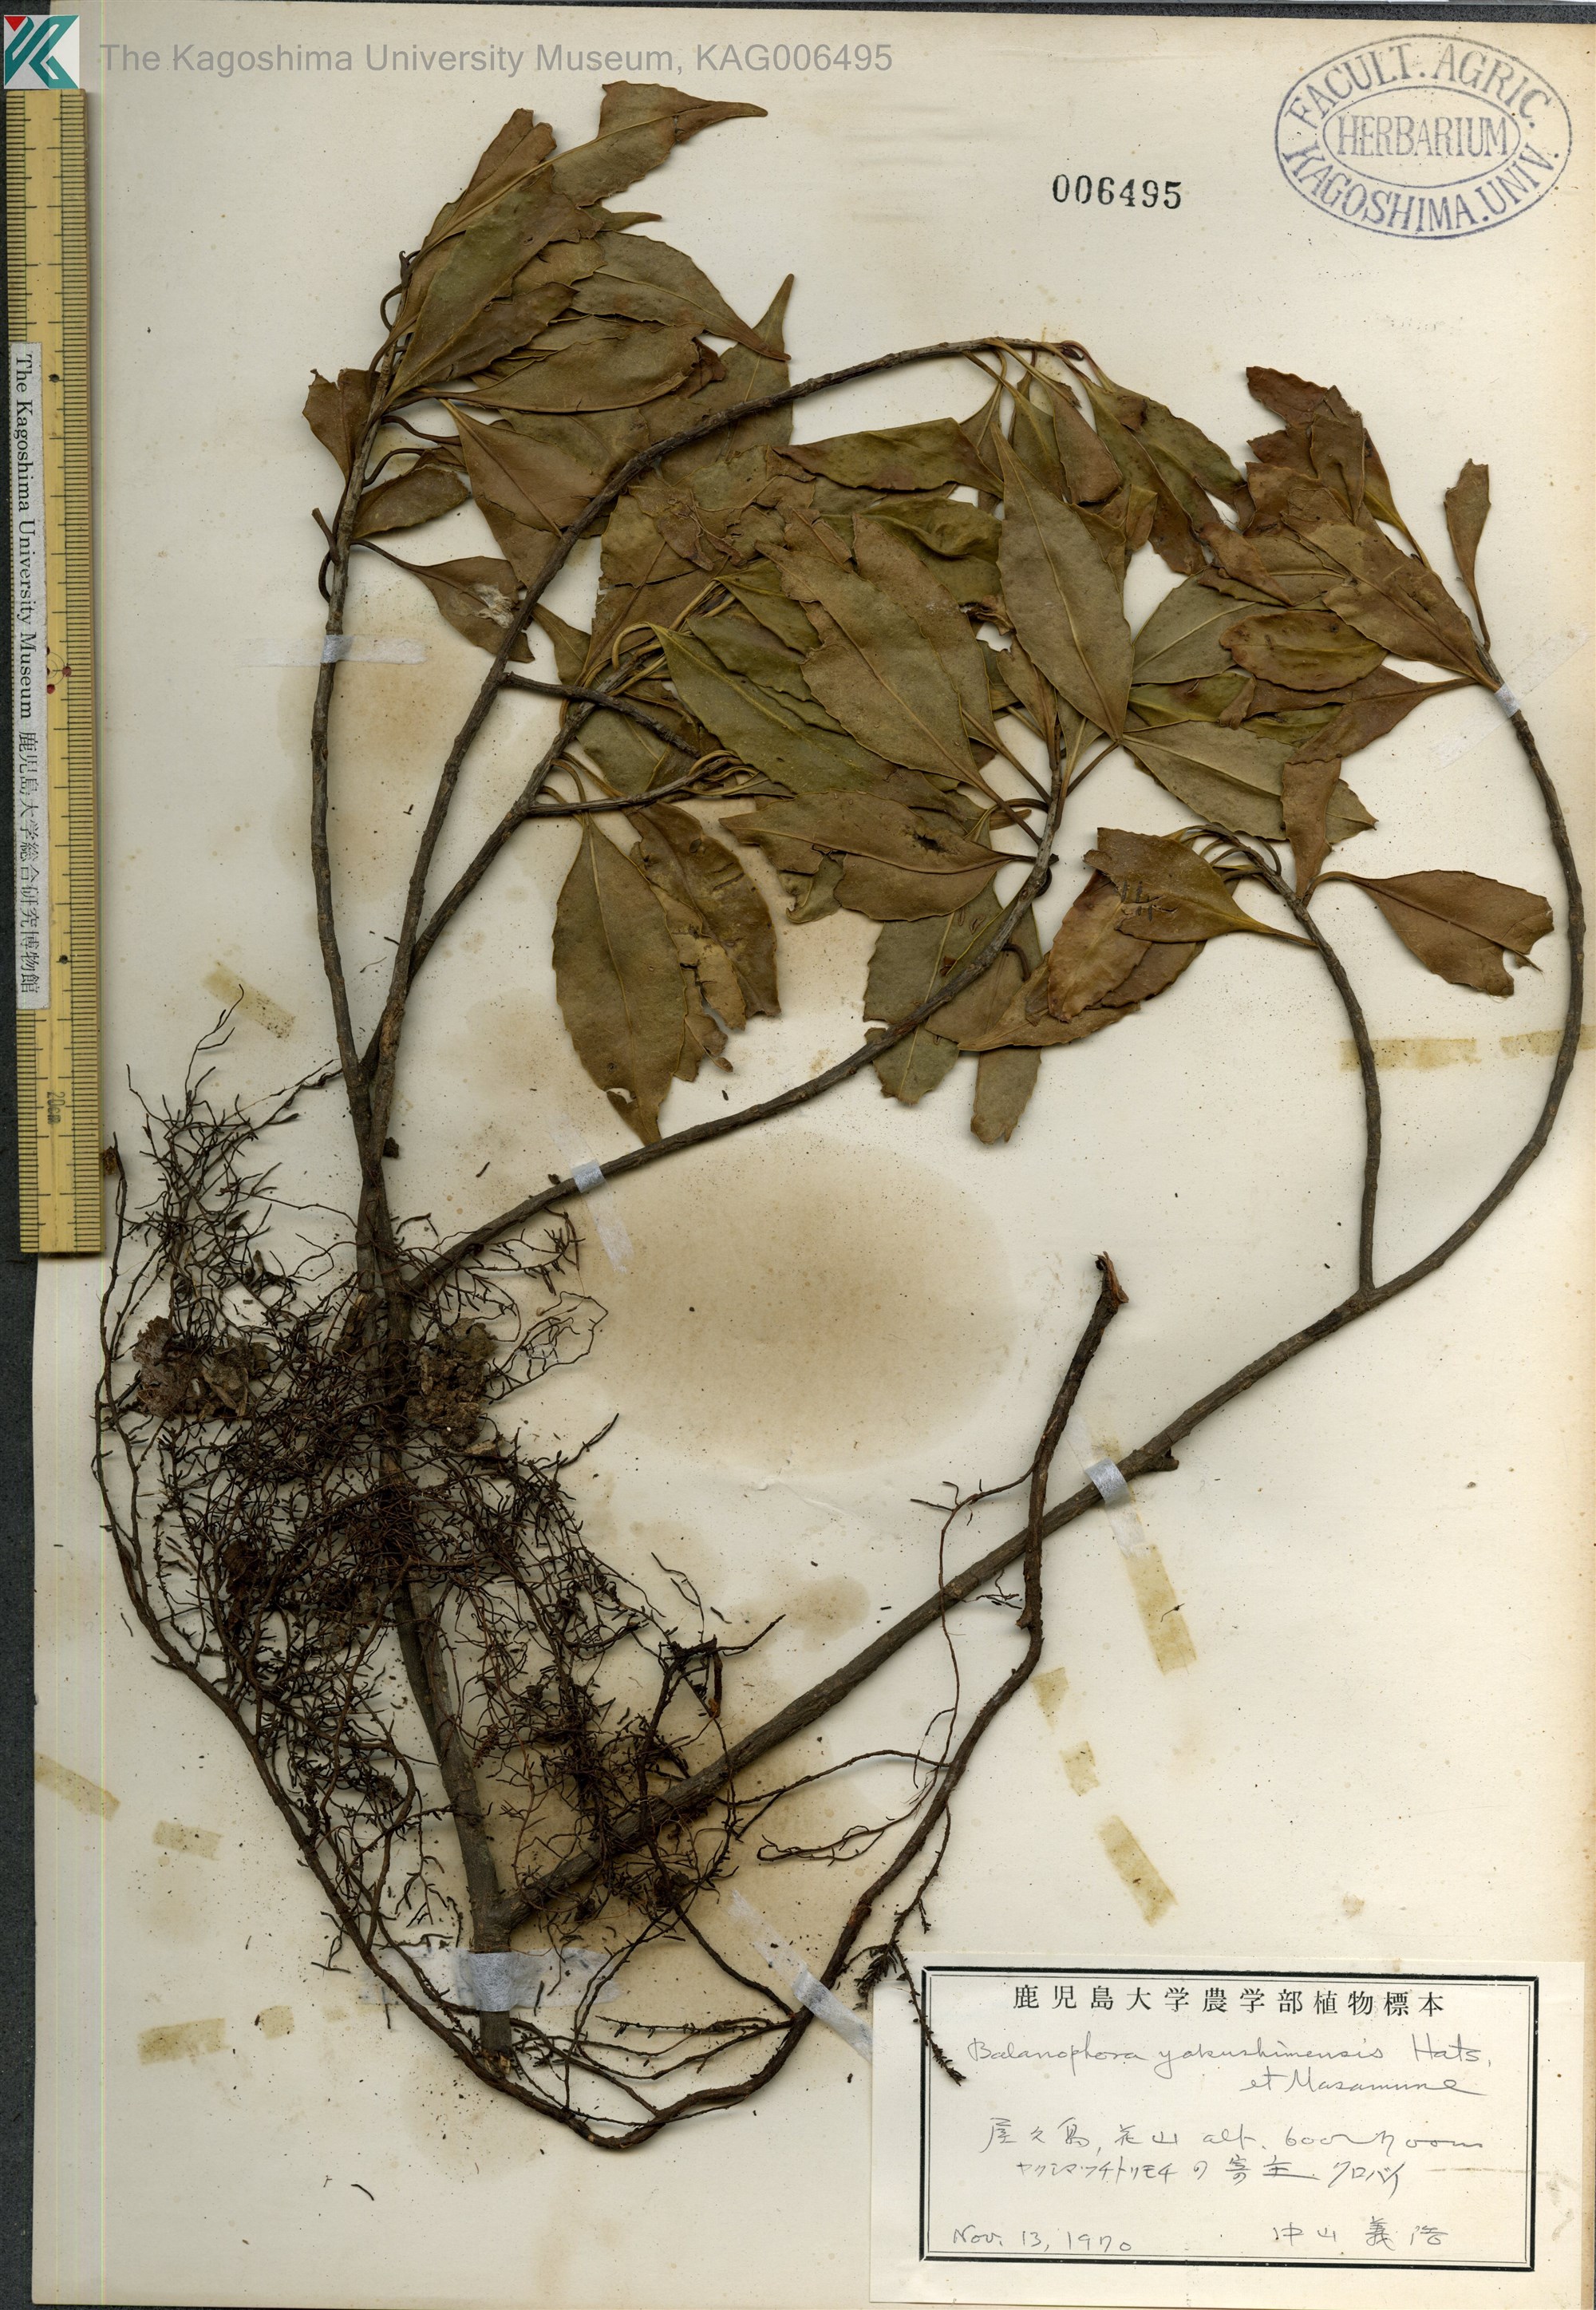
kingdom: Plantae
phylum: Tracheophyta
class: Magnoliopsida
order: Santalales
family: Balanophoraceae
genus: Balanophora
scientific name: Balanophora yakushimensis
